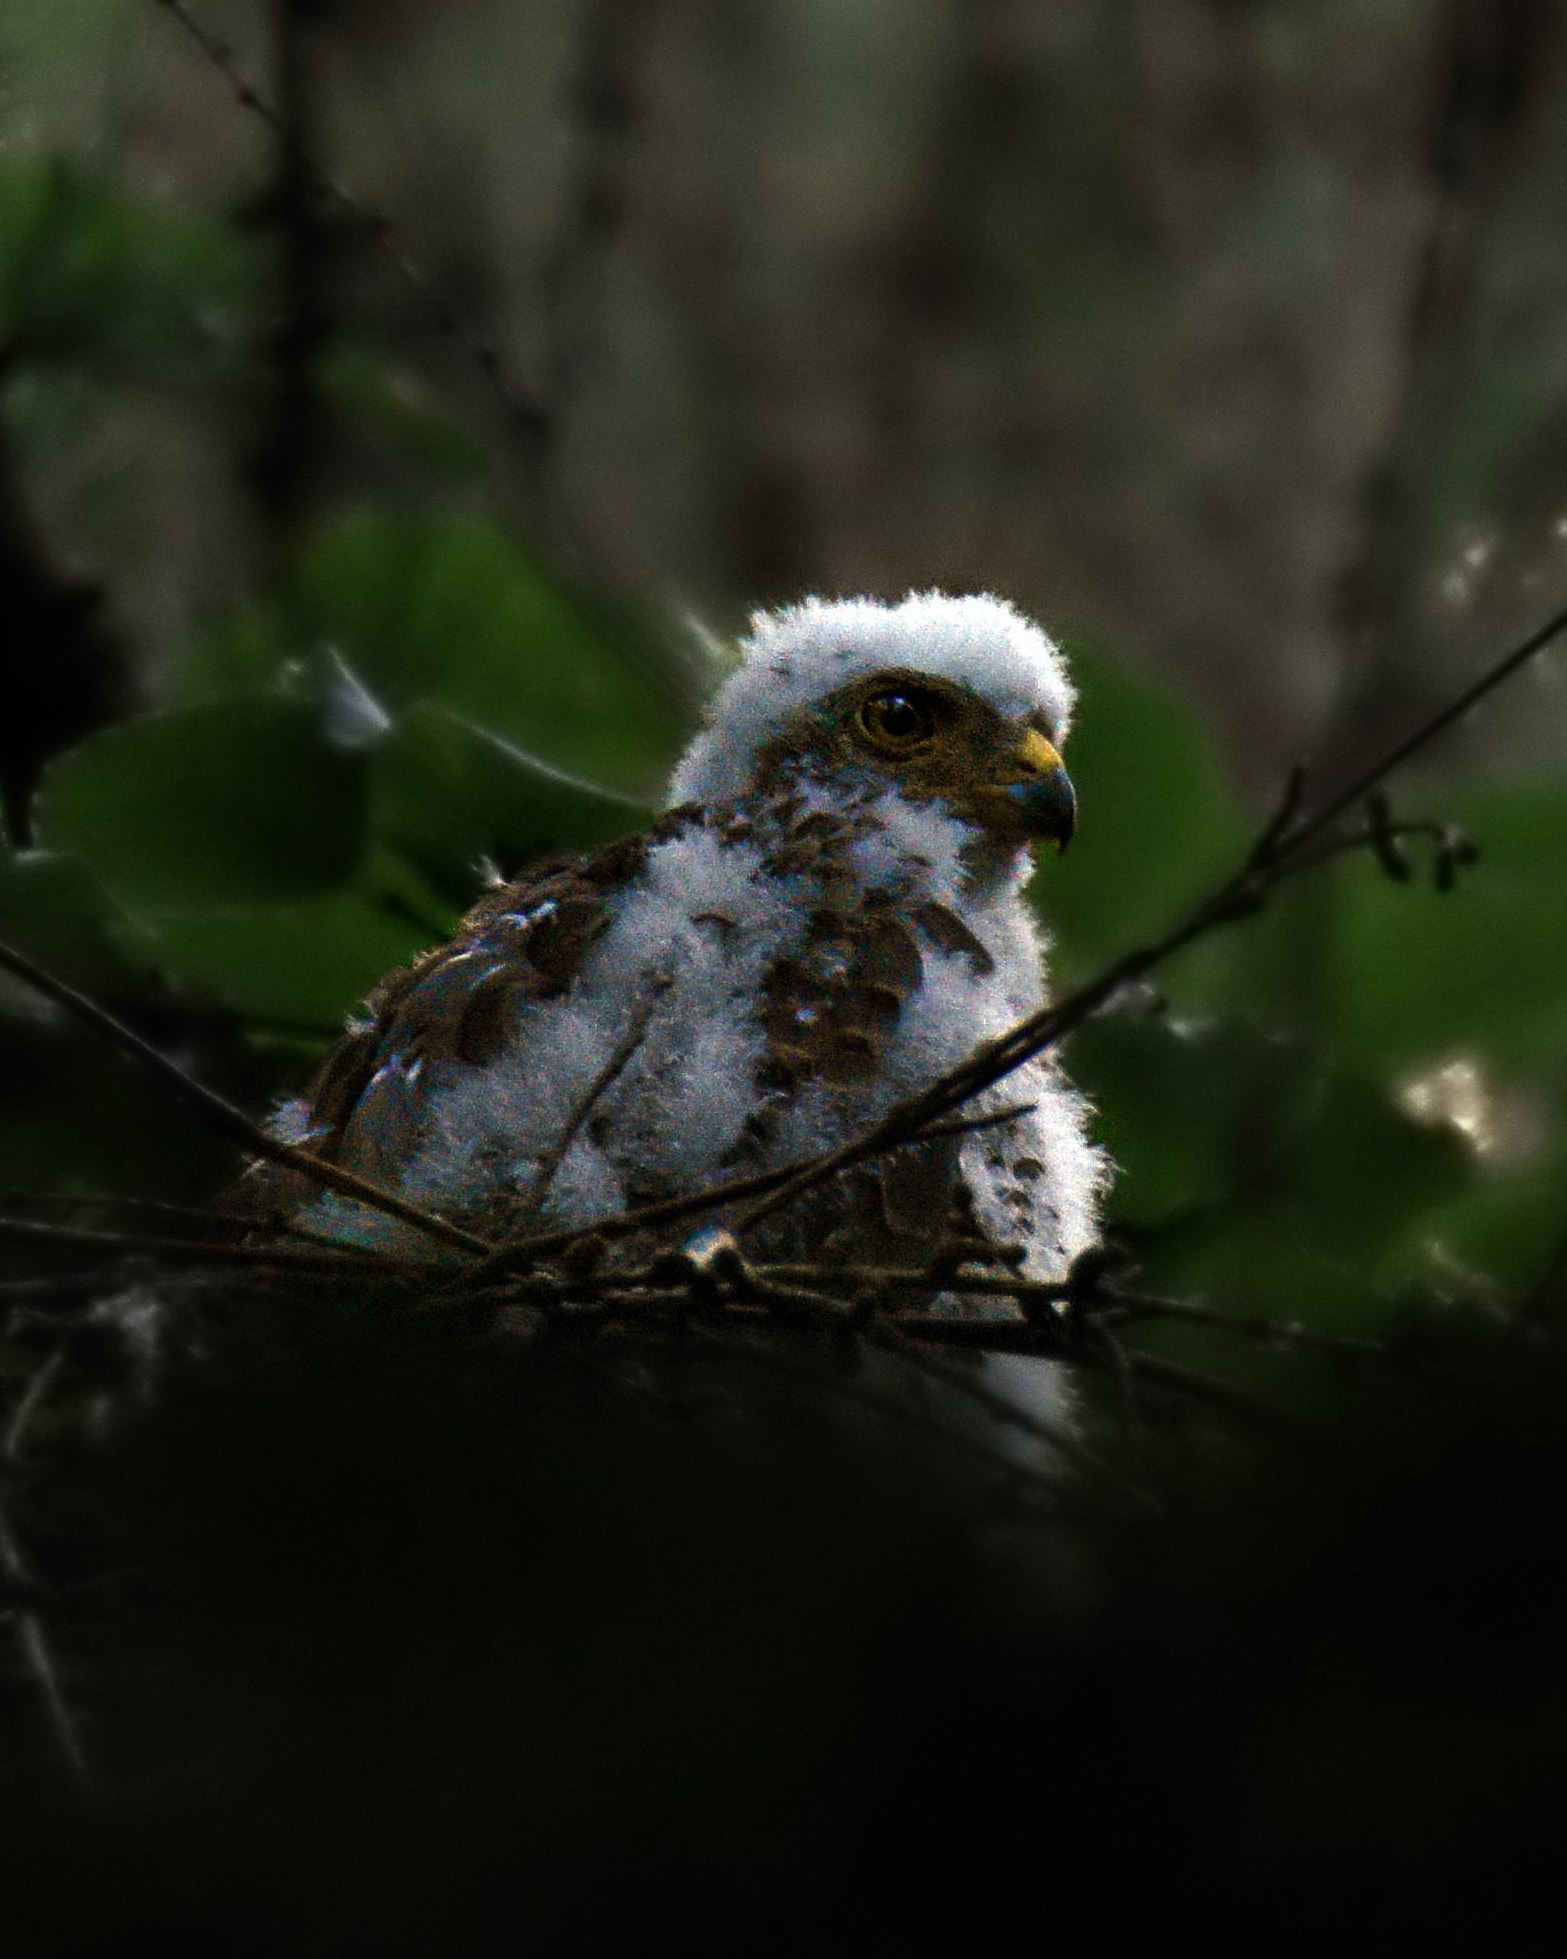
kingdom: Animalia
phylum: Chordata
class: Aves
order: Accipitriformes
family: Accipitridae
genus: Accipiter
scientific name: Accipiter nisus
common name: Spurvehøg
